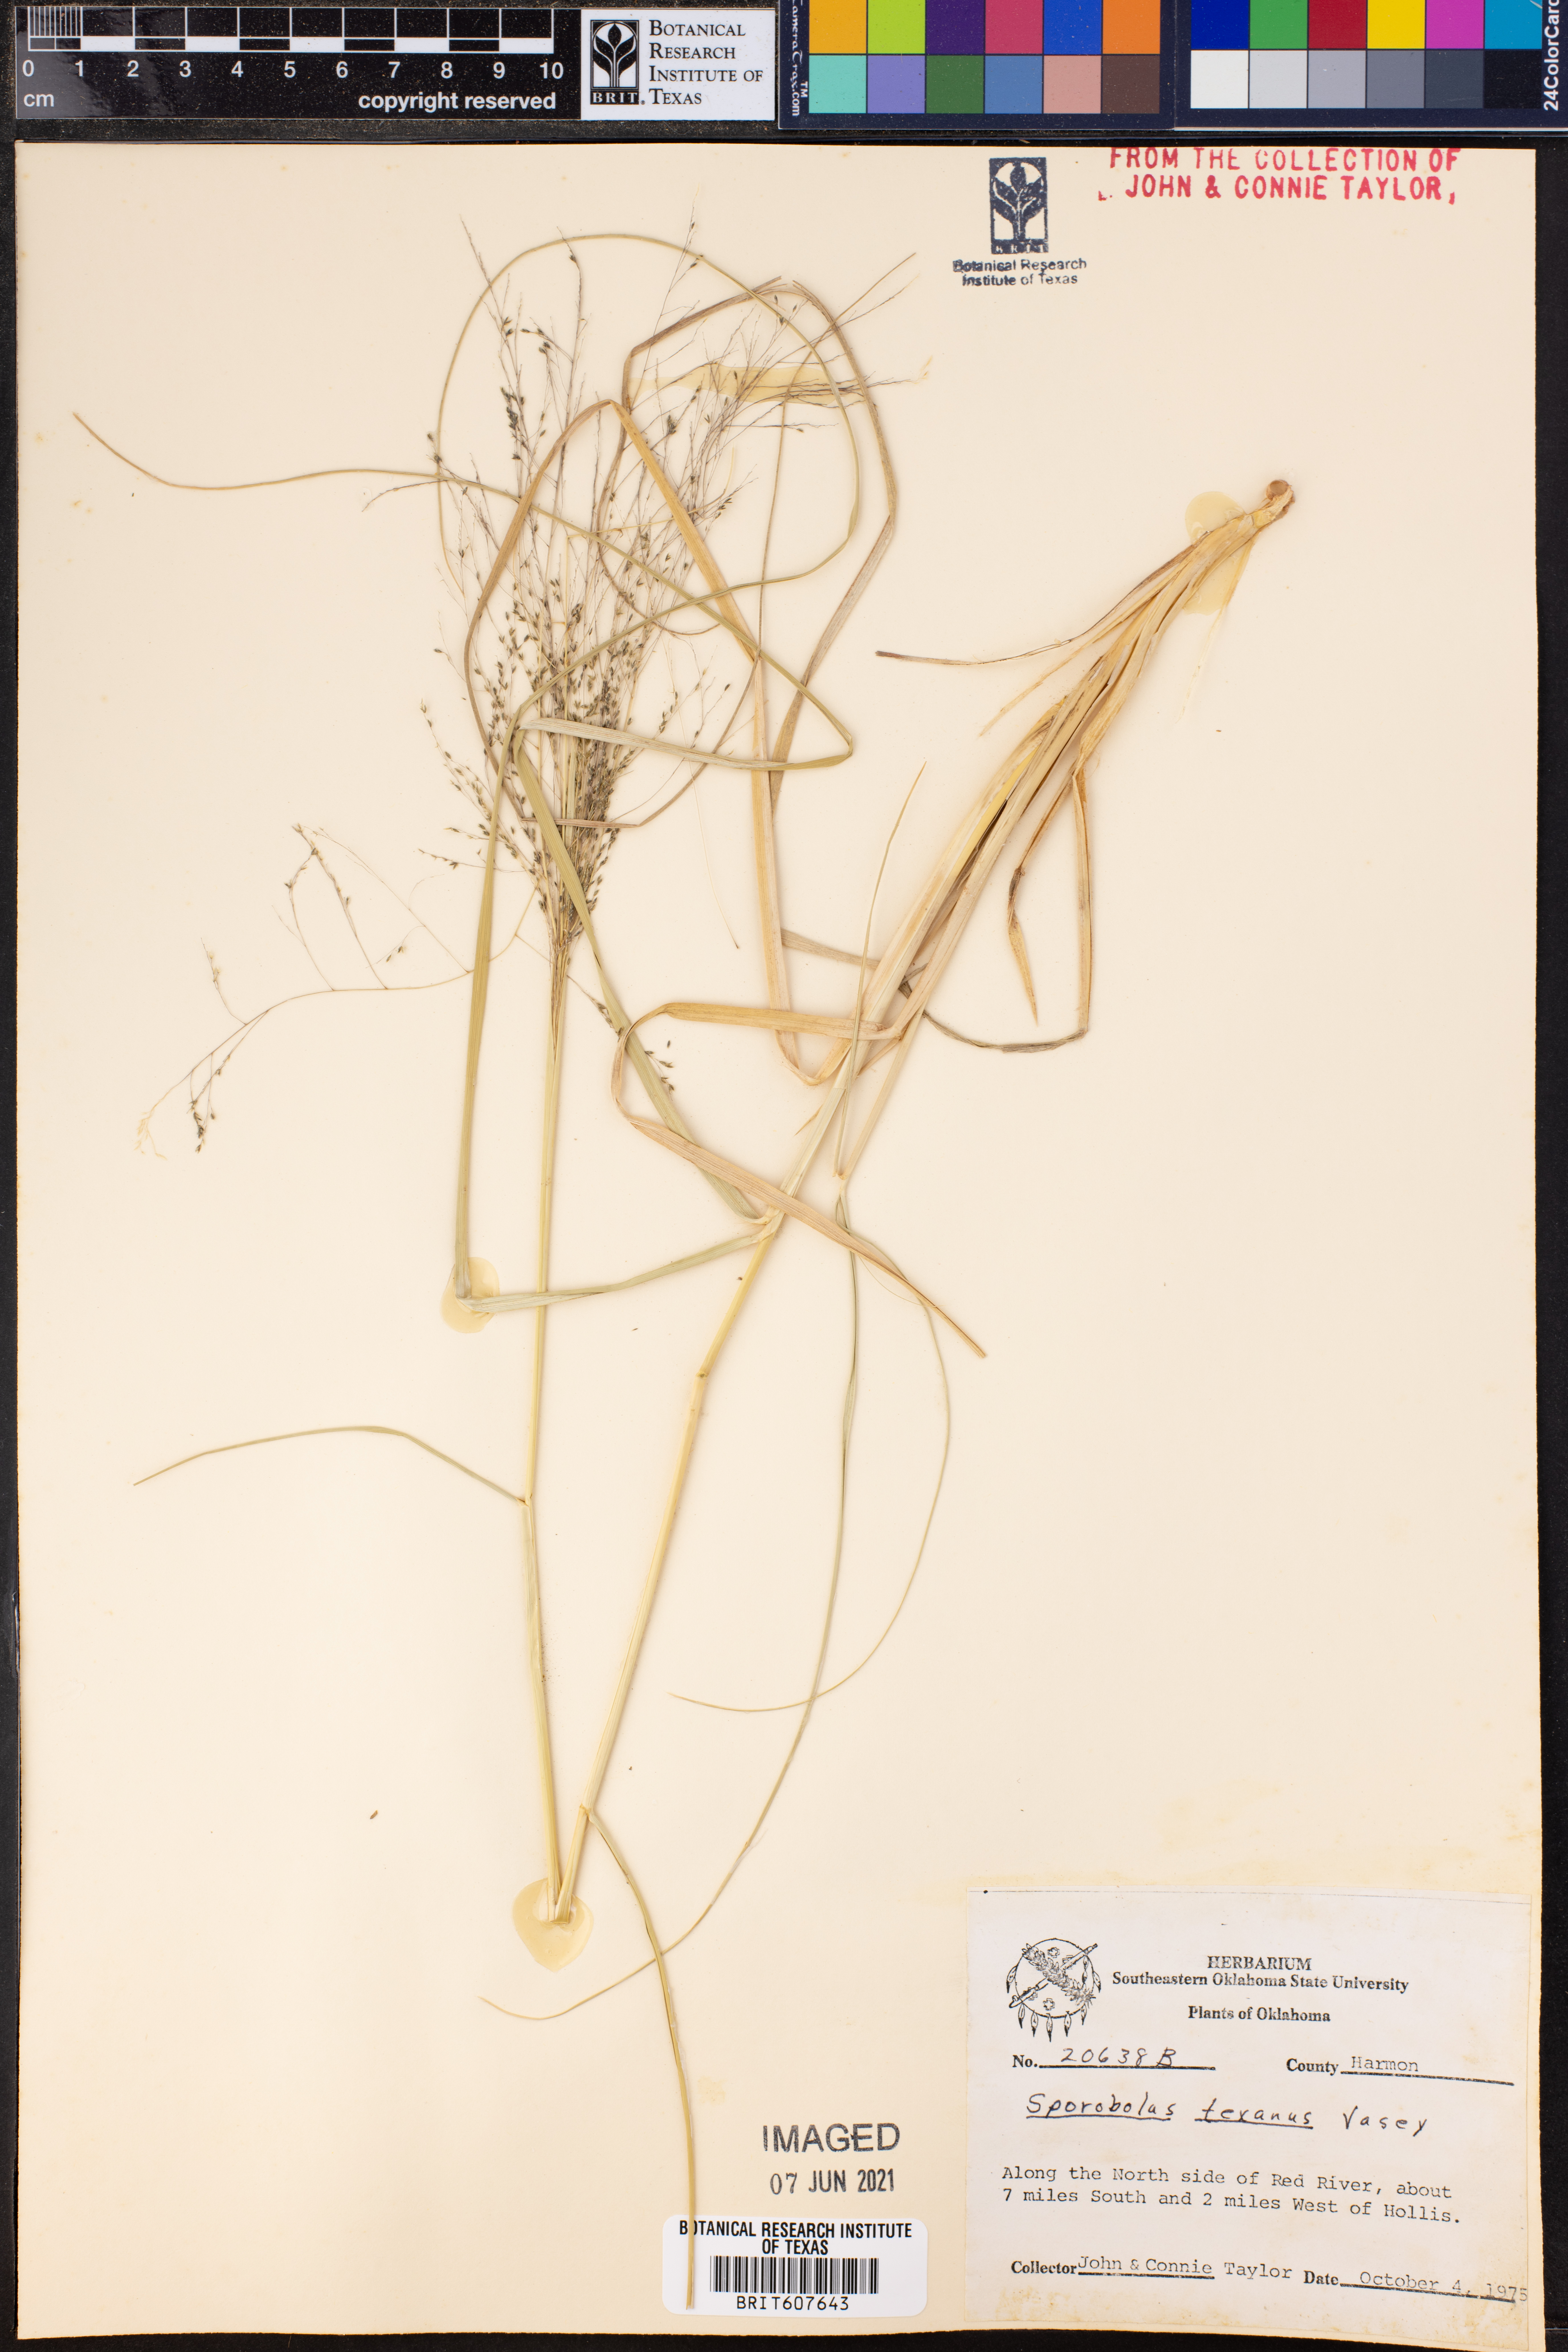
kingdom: Plantae
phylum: Tracheophyta
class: Liliopsida
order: Poales
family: Poaceae
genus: Sporobolus
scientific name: Sporobolus texanus
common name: Texas dropseed
